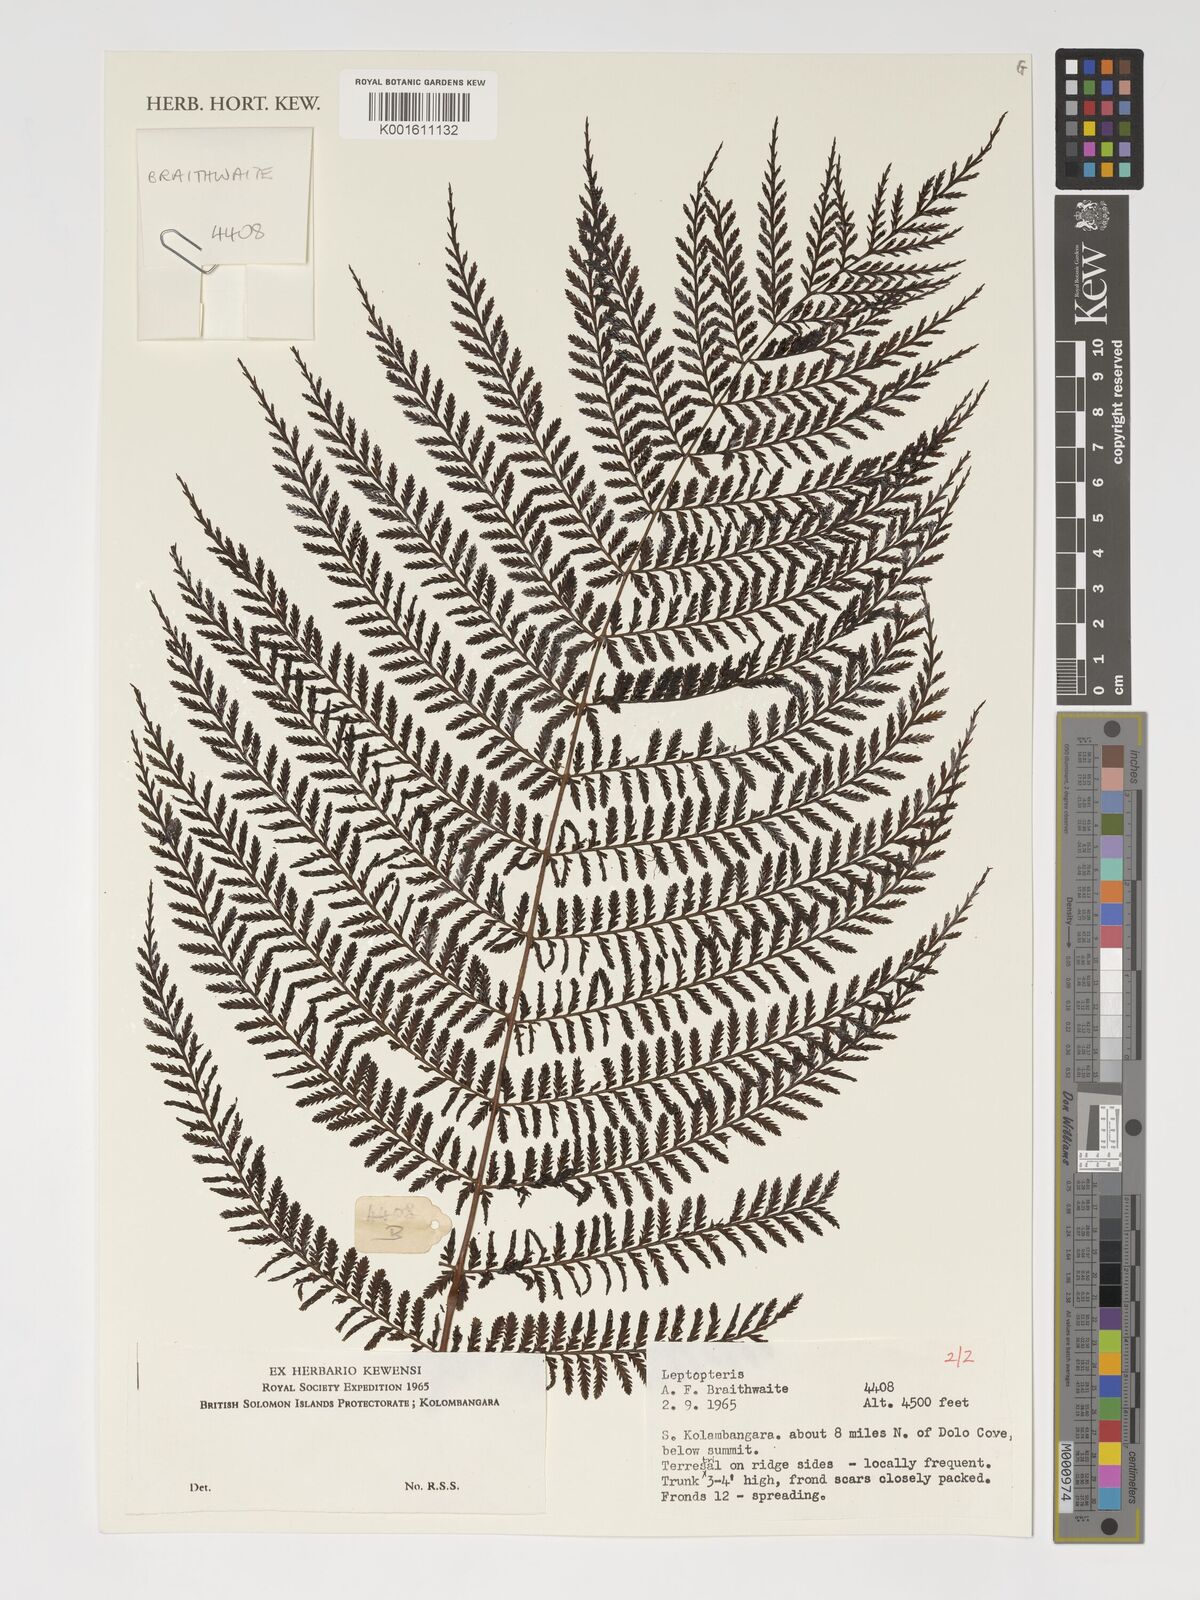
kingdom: Plantae
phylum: Tracheophyta
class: Polypodiopsida
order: Osmundales
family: Osmundaceae
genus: Leptopteris
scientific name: Leptopteris
